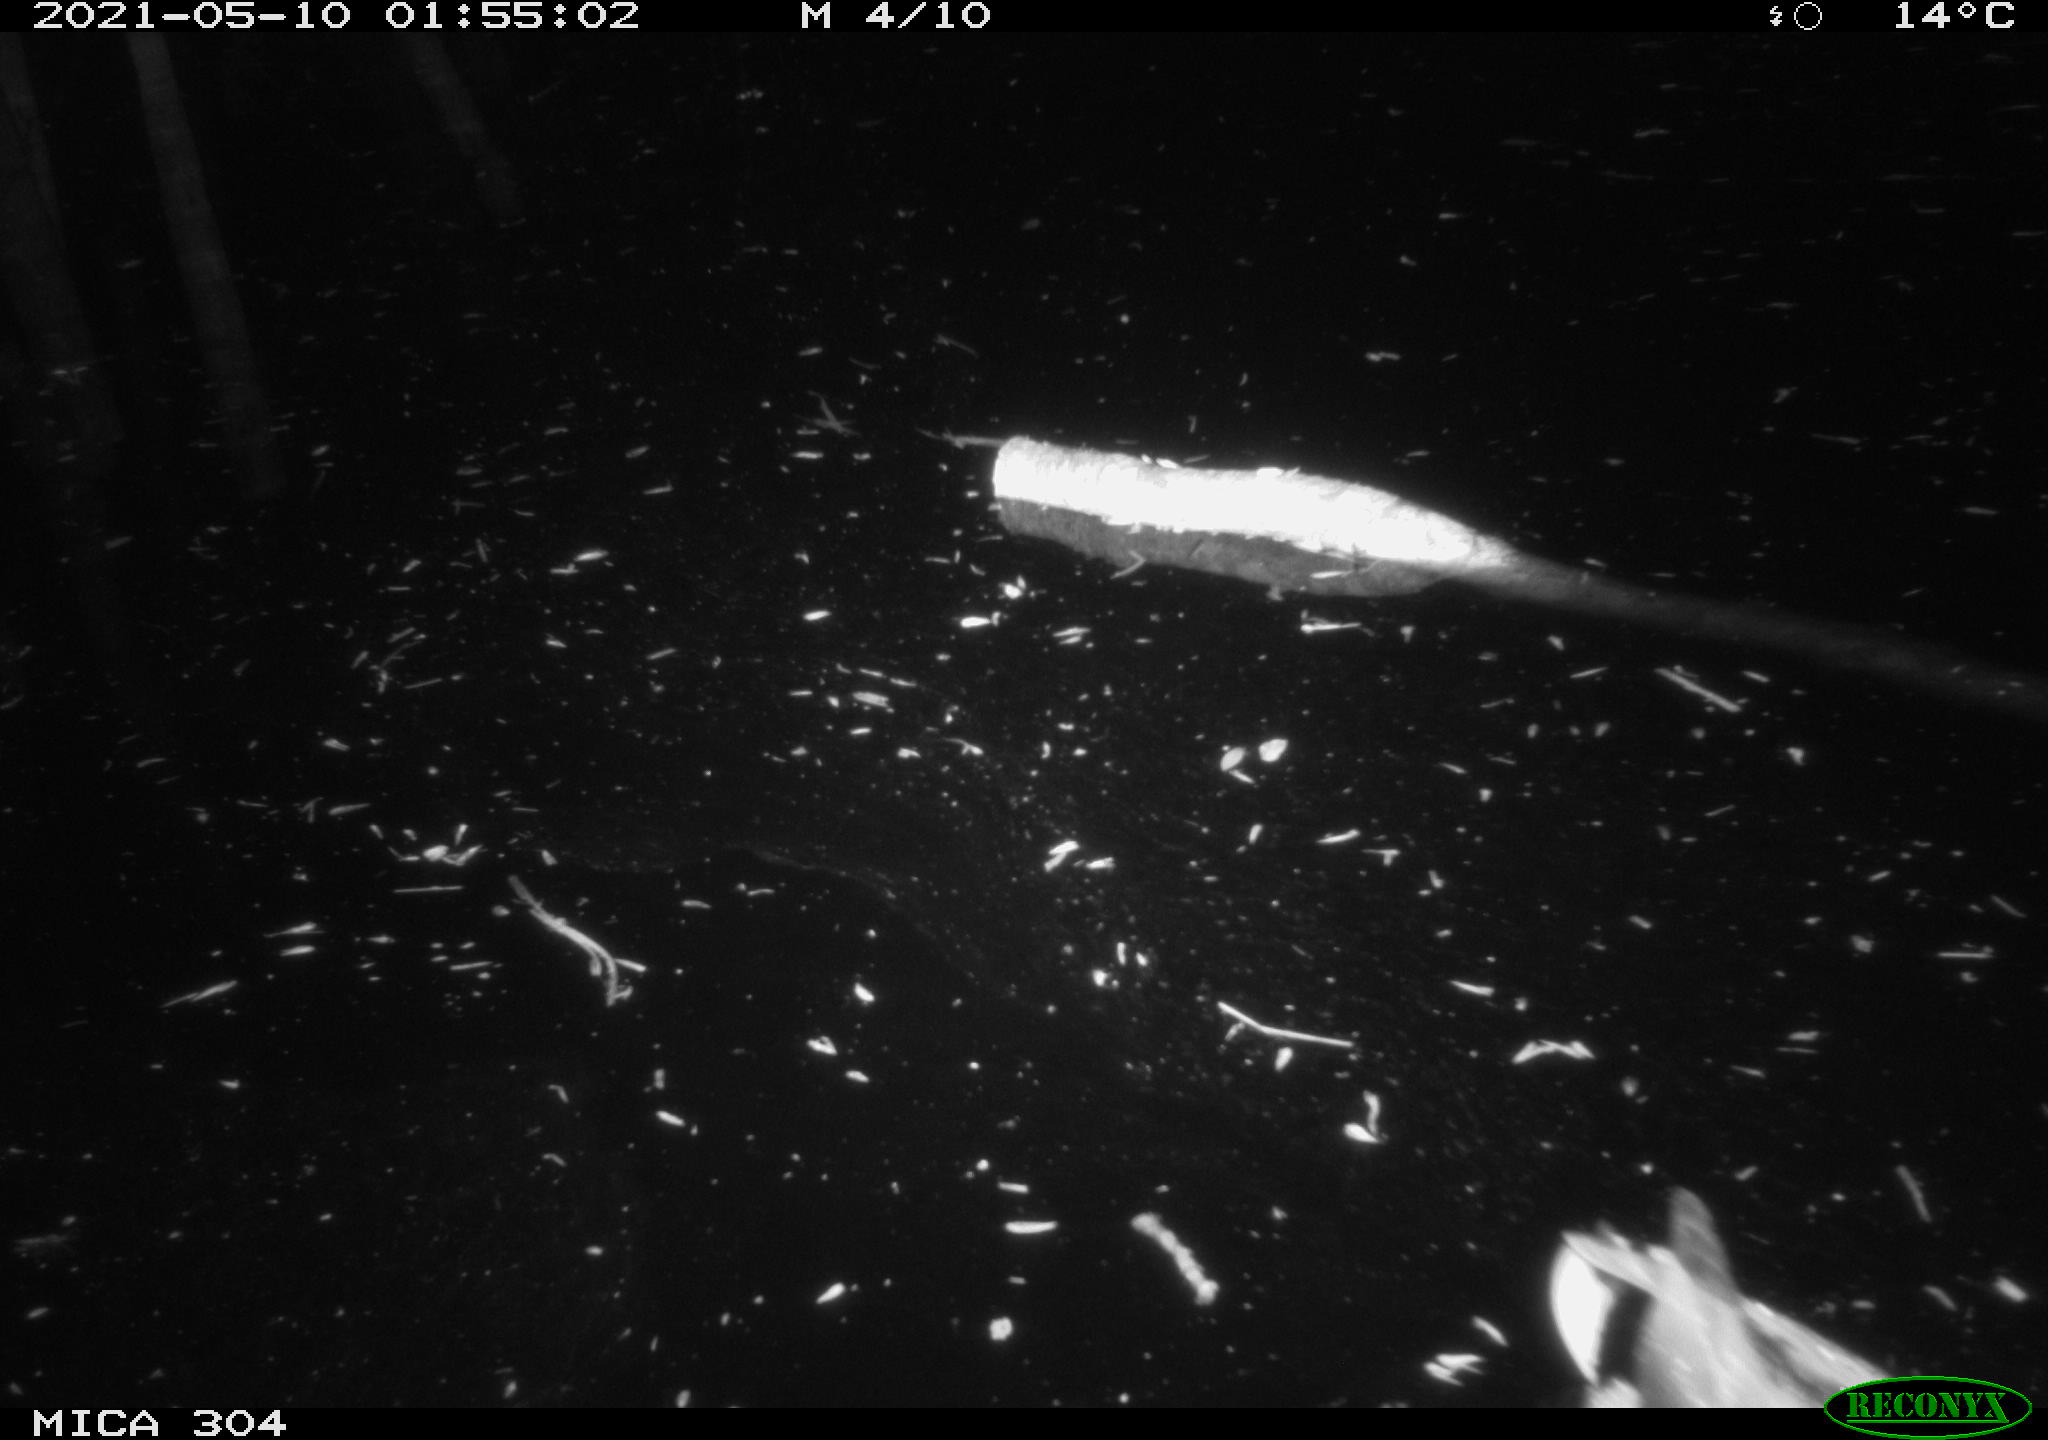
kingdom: Animalia
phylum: Chordata
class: Aves
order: Anseriformes
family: Anatidae
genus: Anas
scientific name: Anas platyrhynchos
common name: Mallard
